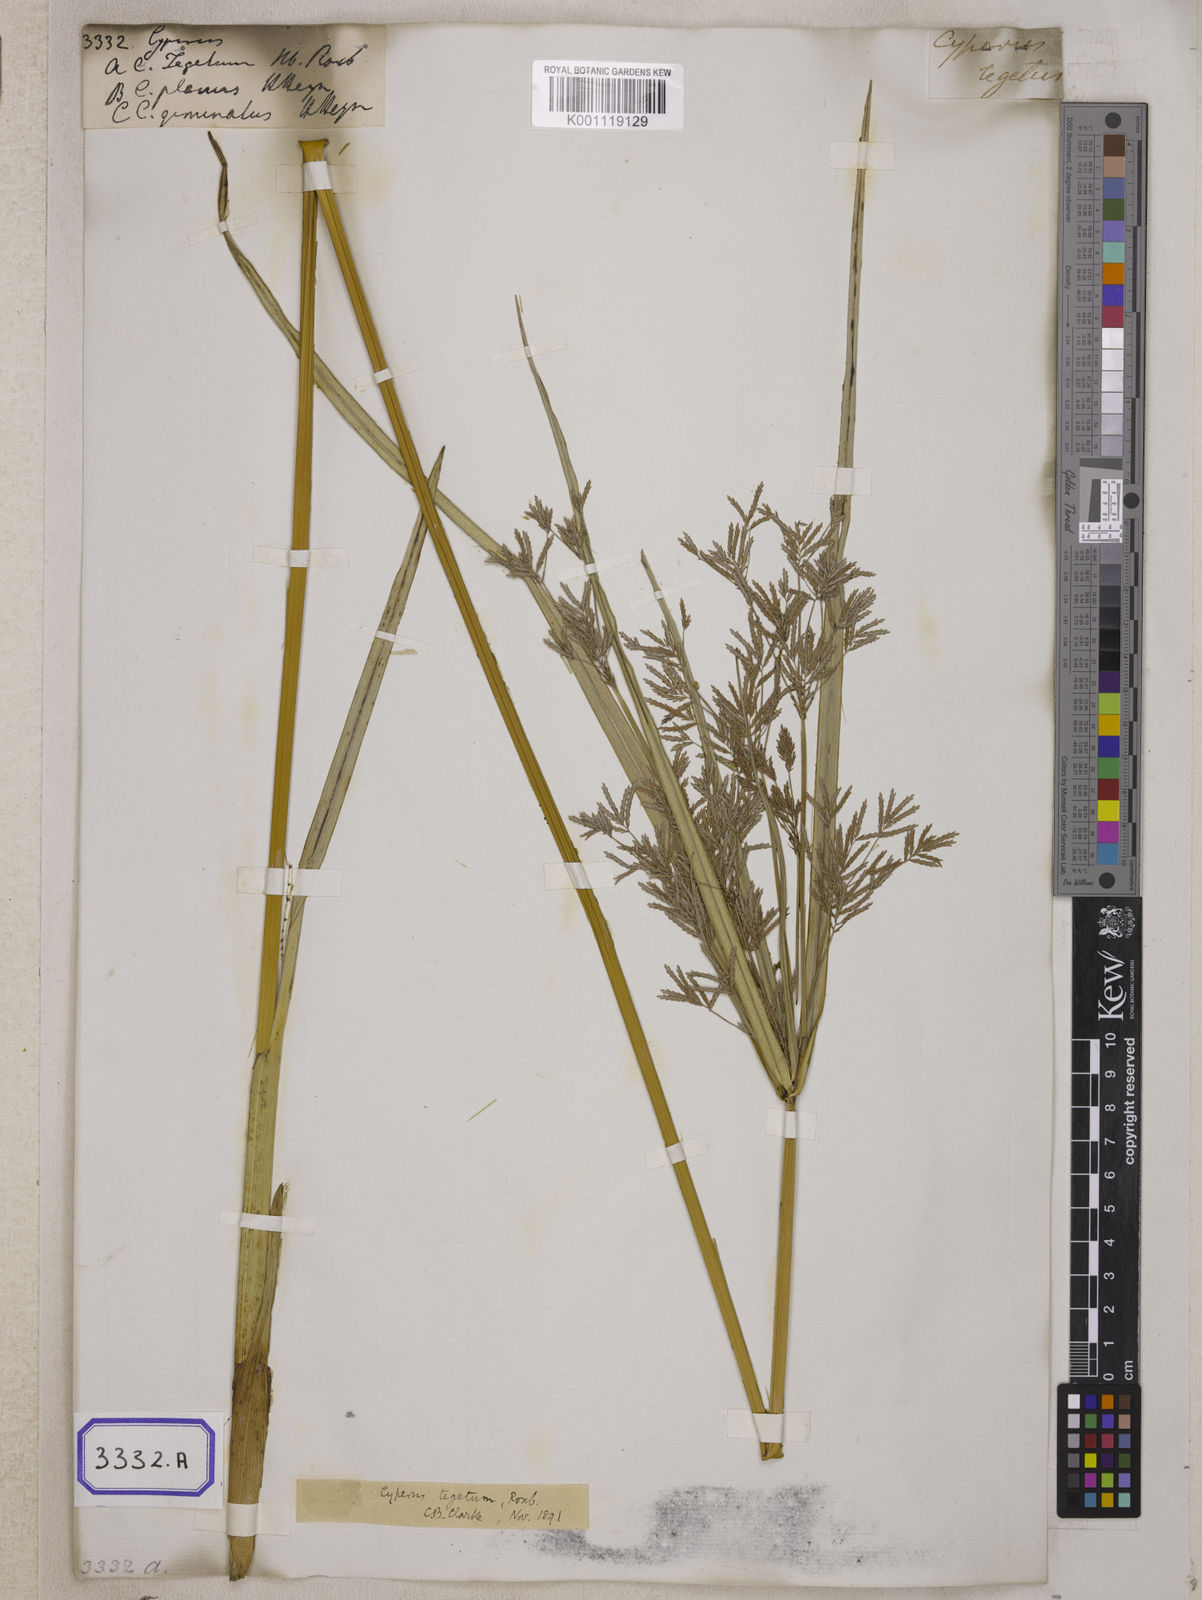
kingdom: Plantae
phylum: Tracheophyta
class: Liliopsida
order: Poales
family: Cyperaceae
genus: Cyperus
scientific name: Cyperus
